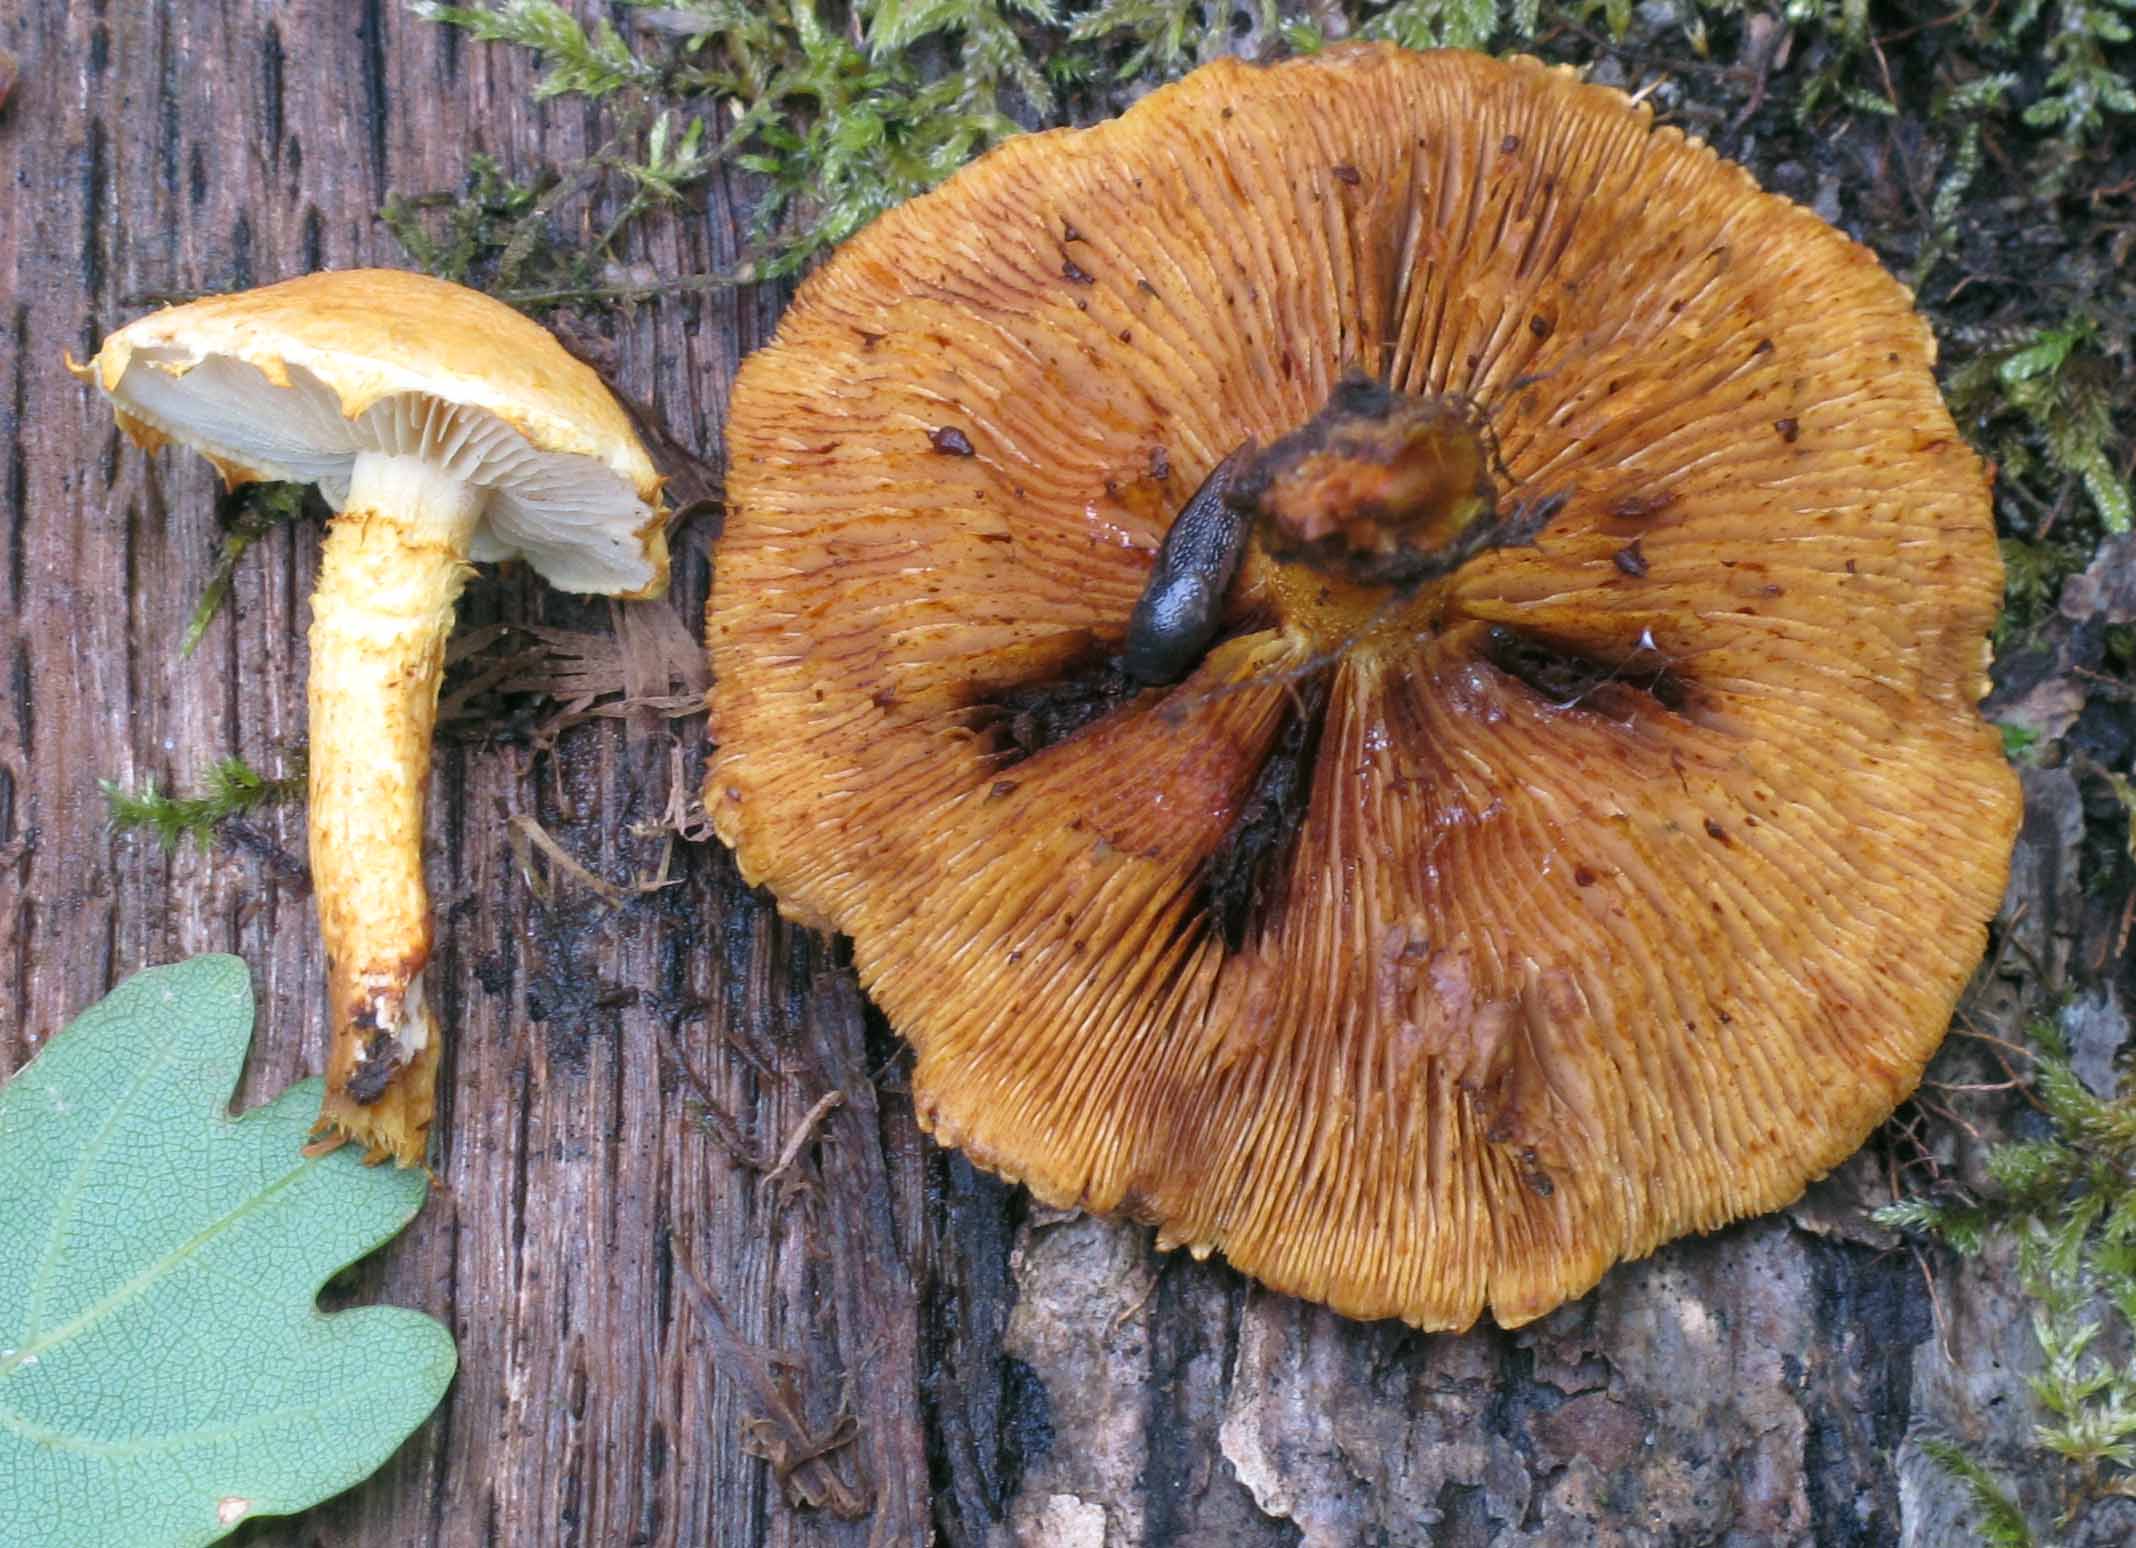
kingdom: Fungi
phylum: Basidiomycota
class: Agaricomycetes
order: Agaricales
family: Strophariaceae
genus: Pholiota
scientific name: Pholiota tuberculosa
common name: finskællet skælhat
